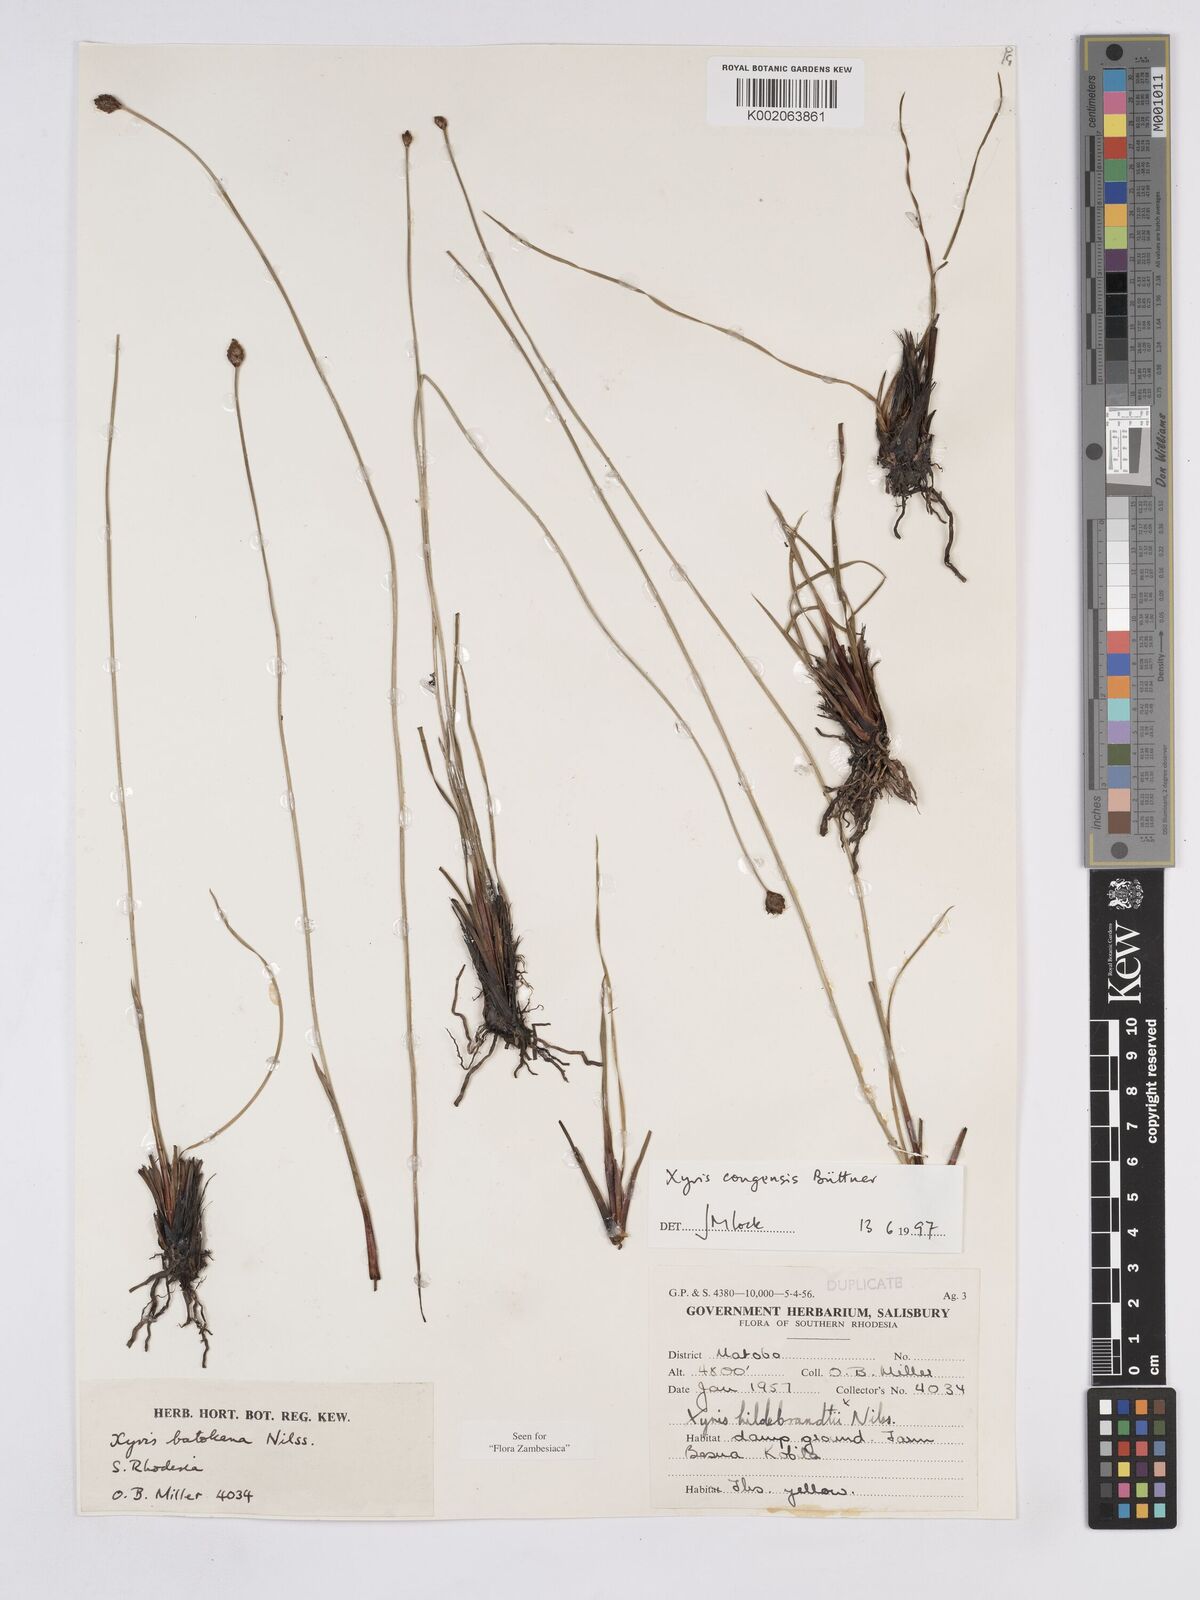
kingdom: Plantae
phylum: Tracheophyta
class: Liliopsida
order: Poales
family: Xyridaceae
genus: Xyris
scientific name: Xyris congensis
